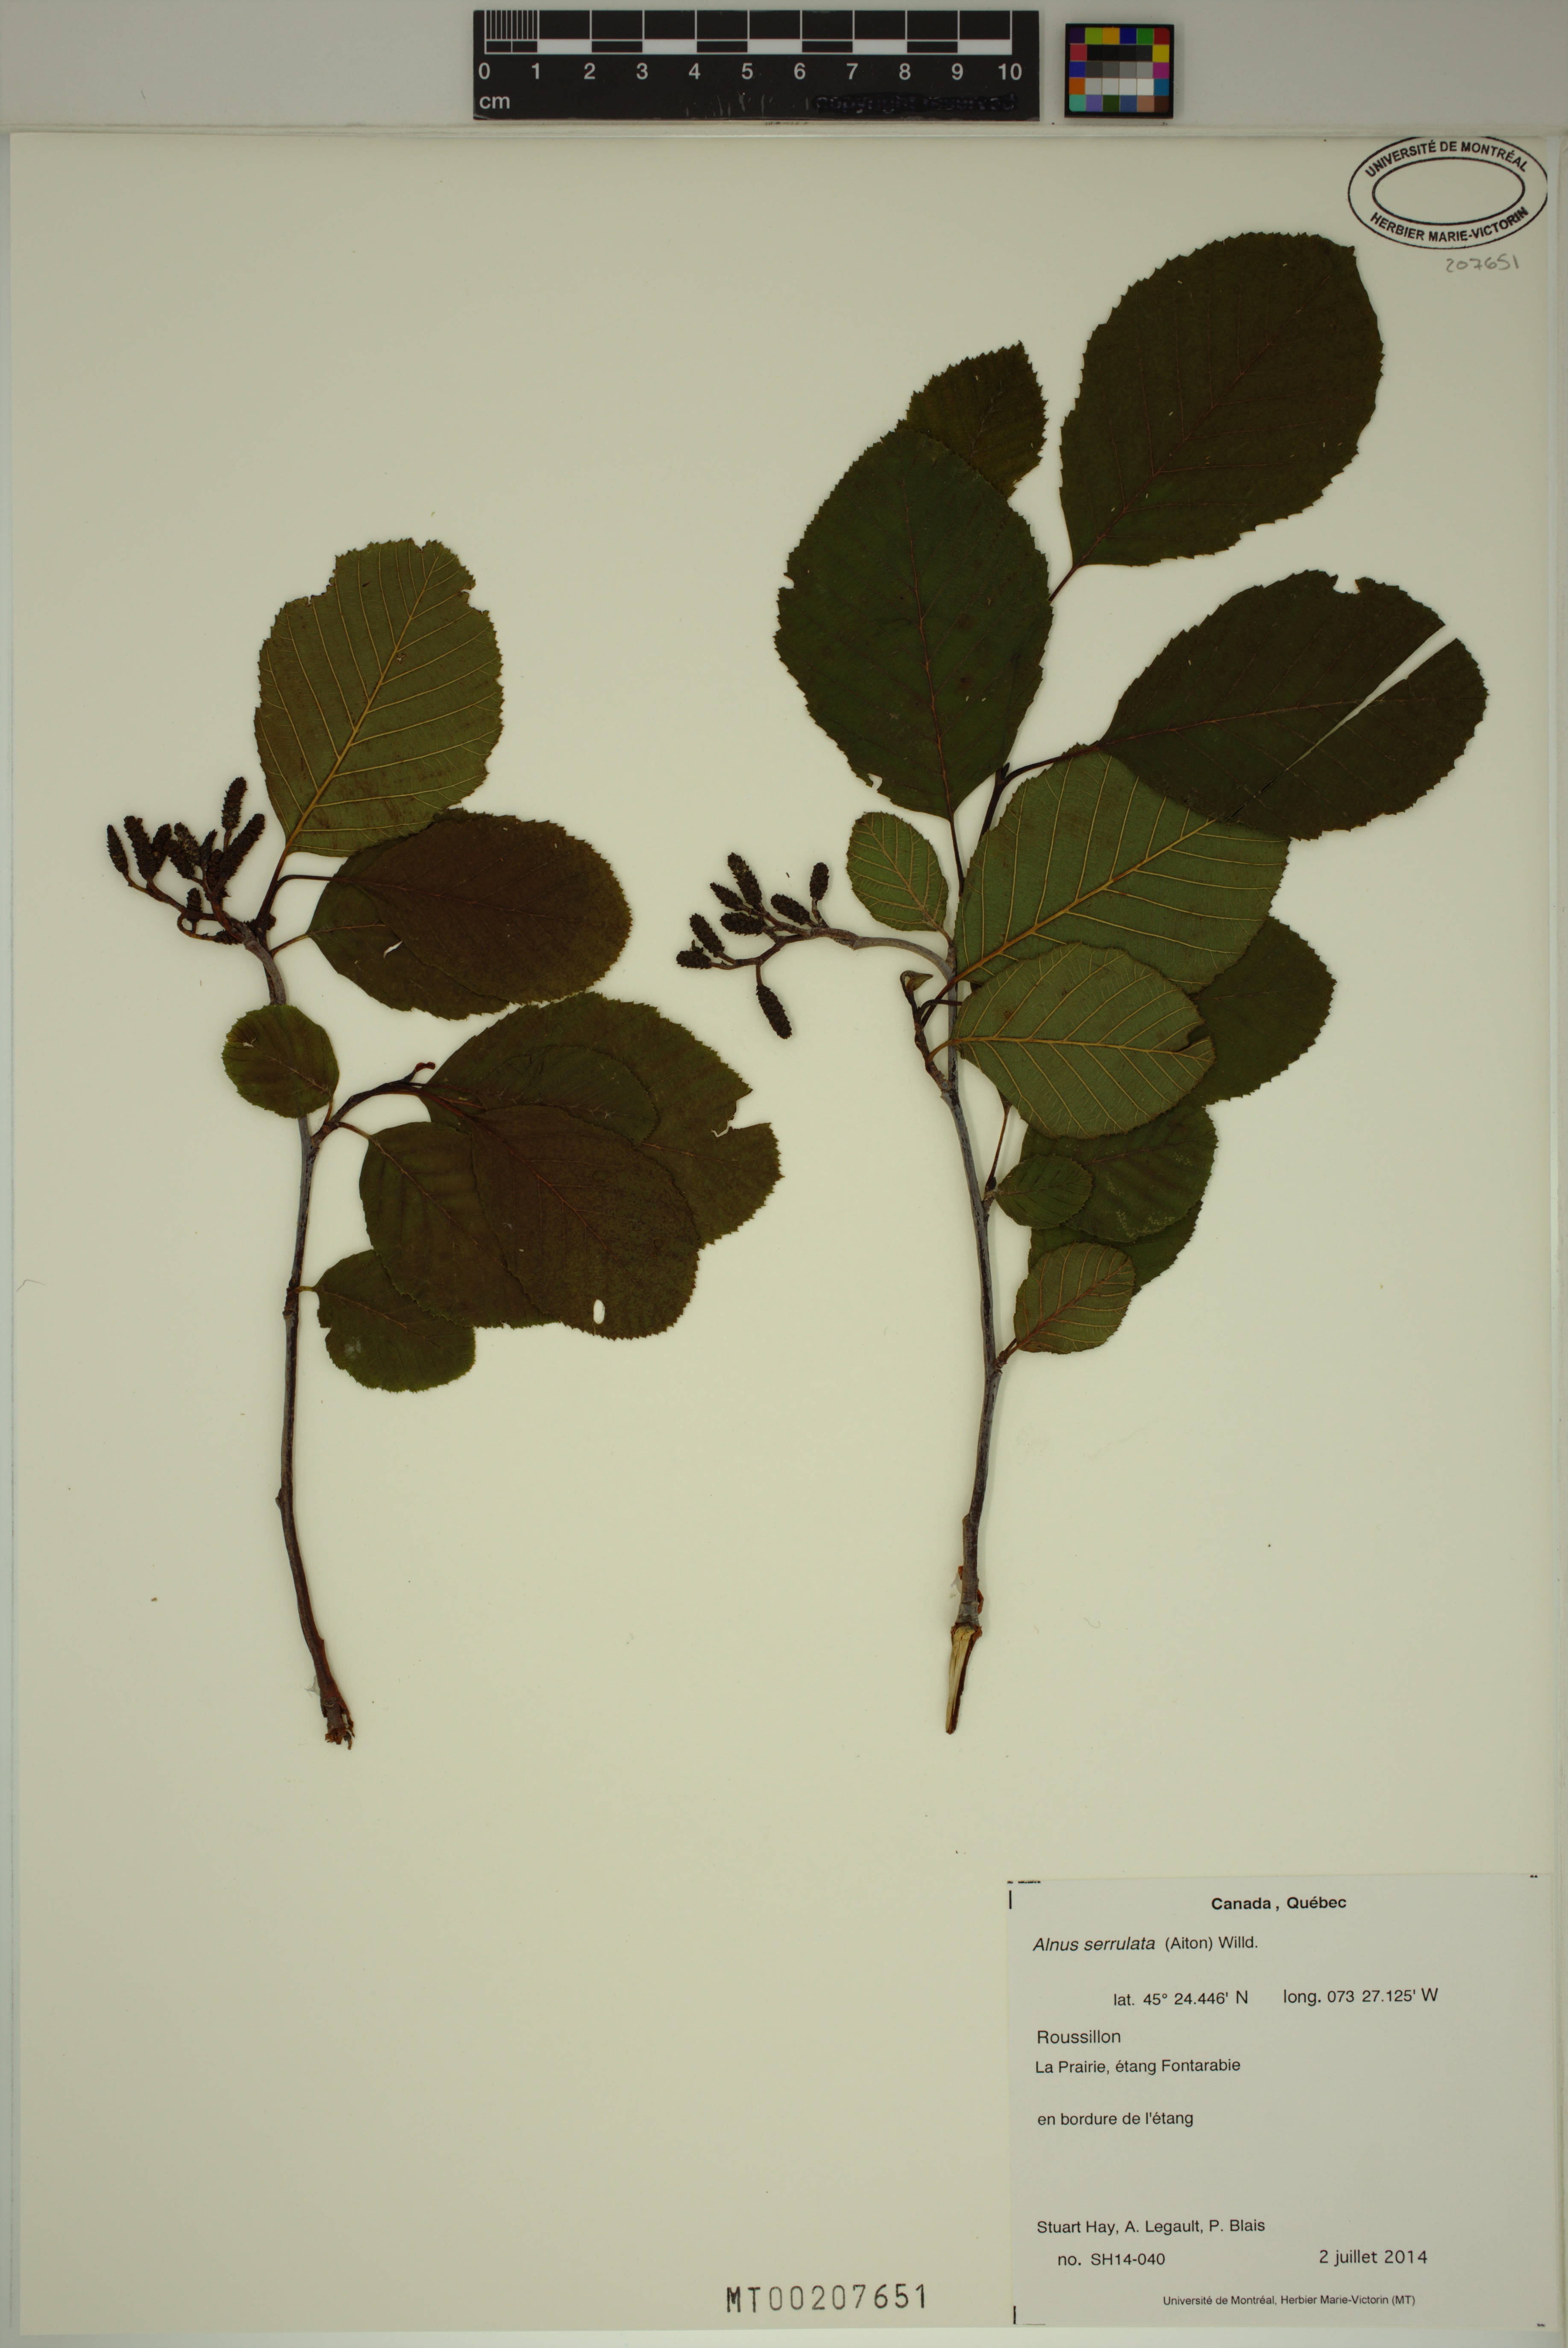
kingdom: Plantae
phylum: Tracheophyta
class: Magnoliopsida
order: Fagales
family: Betulaceae
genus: Alnus
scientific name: Alnus serrulata
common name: Hazel alder
